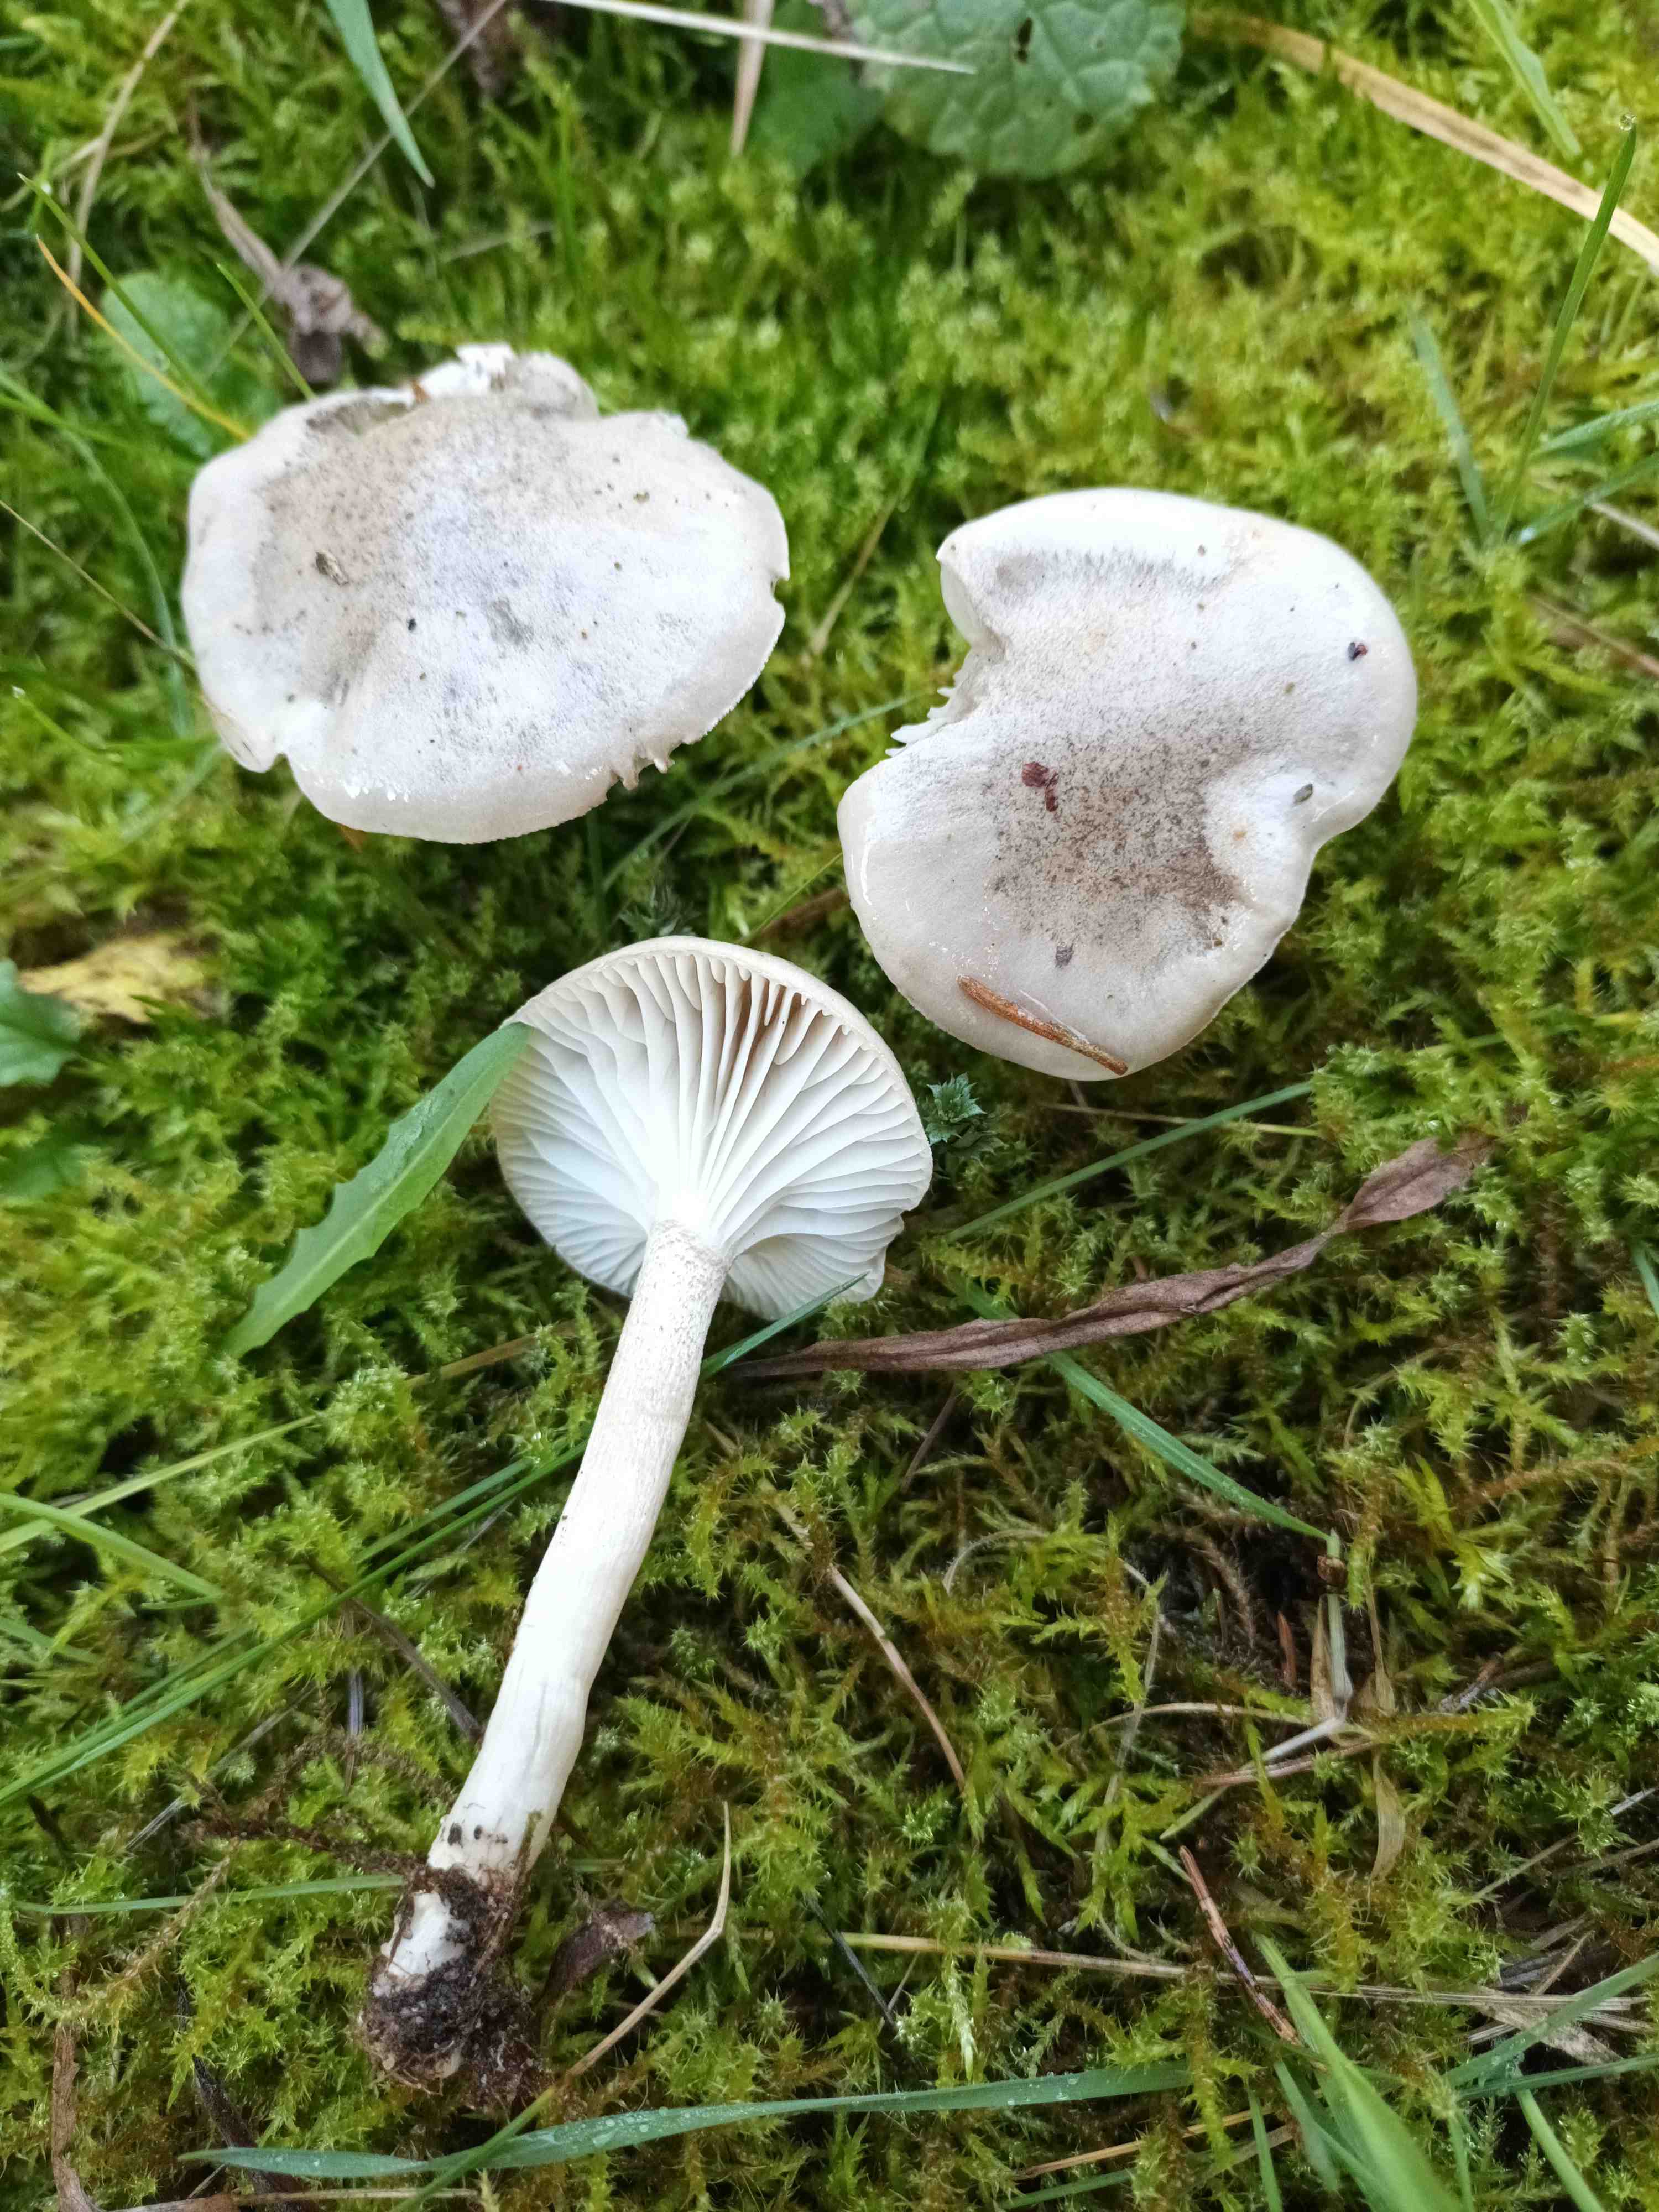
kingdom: Fungi
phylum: Basidiomycota
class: Agaricomycetes
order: Agaricales
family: Hygrophoraceae
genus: Hygrophorus
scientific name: Hygrophorus pustulatus
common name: mørkprikket sneglehat
